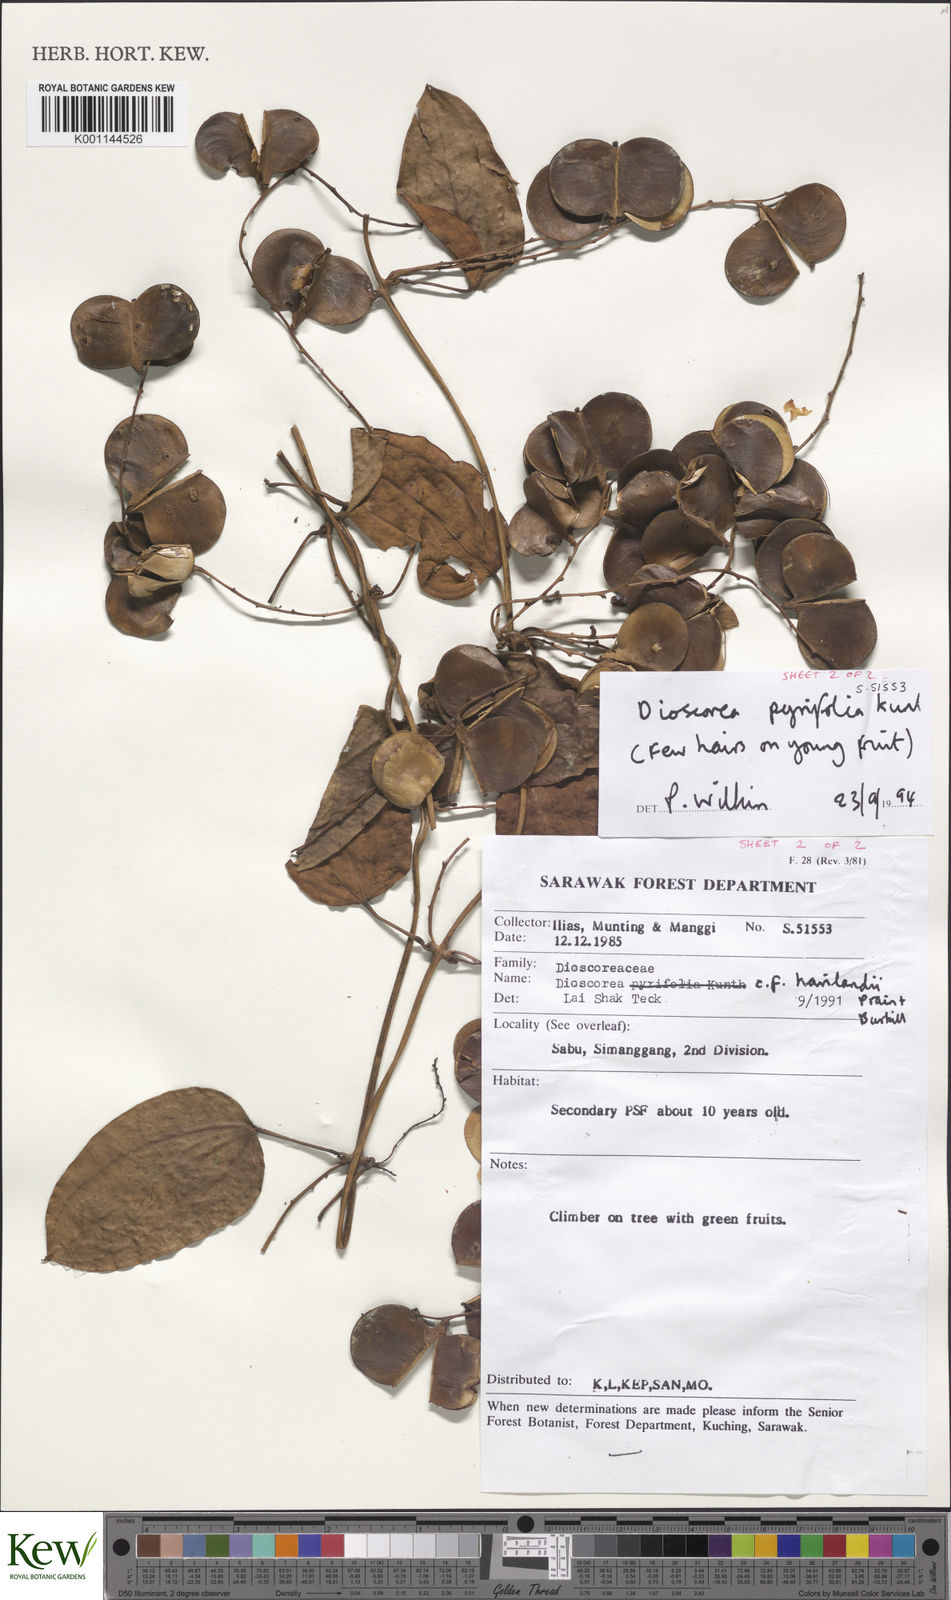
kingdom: Plantae
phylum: Tracheophyta
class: Liliopsida
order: Dioscoreales
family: Dioscoreaceae
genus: Dioscorea
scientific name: Dioscorea pyrifolia
